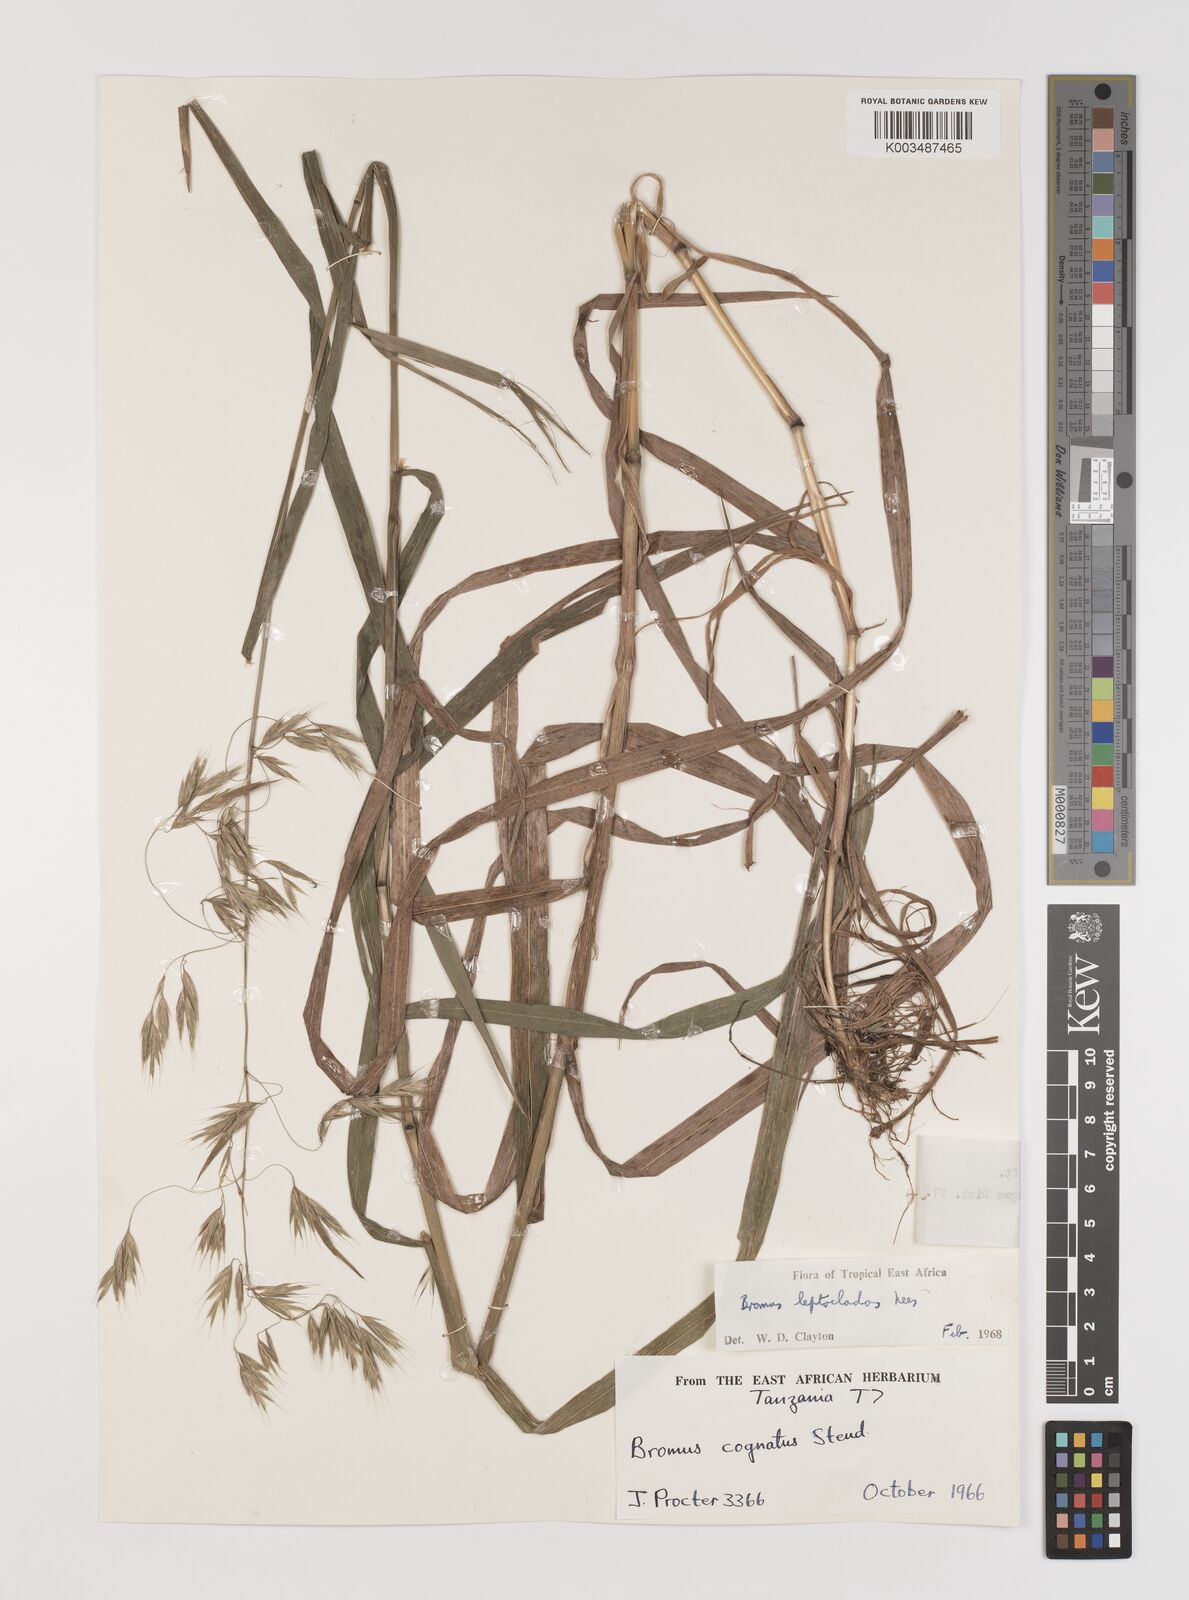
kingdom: Plantae
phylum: Tracheophyta
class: Liliopsida
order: Poales
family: Poaceae
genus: Bromus
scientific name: Bromus leptoclados
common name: Mountain bromegrass
